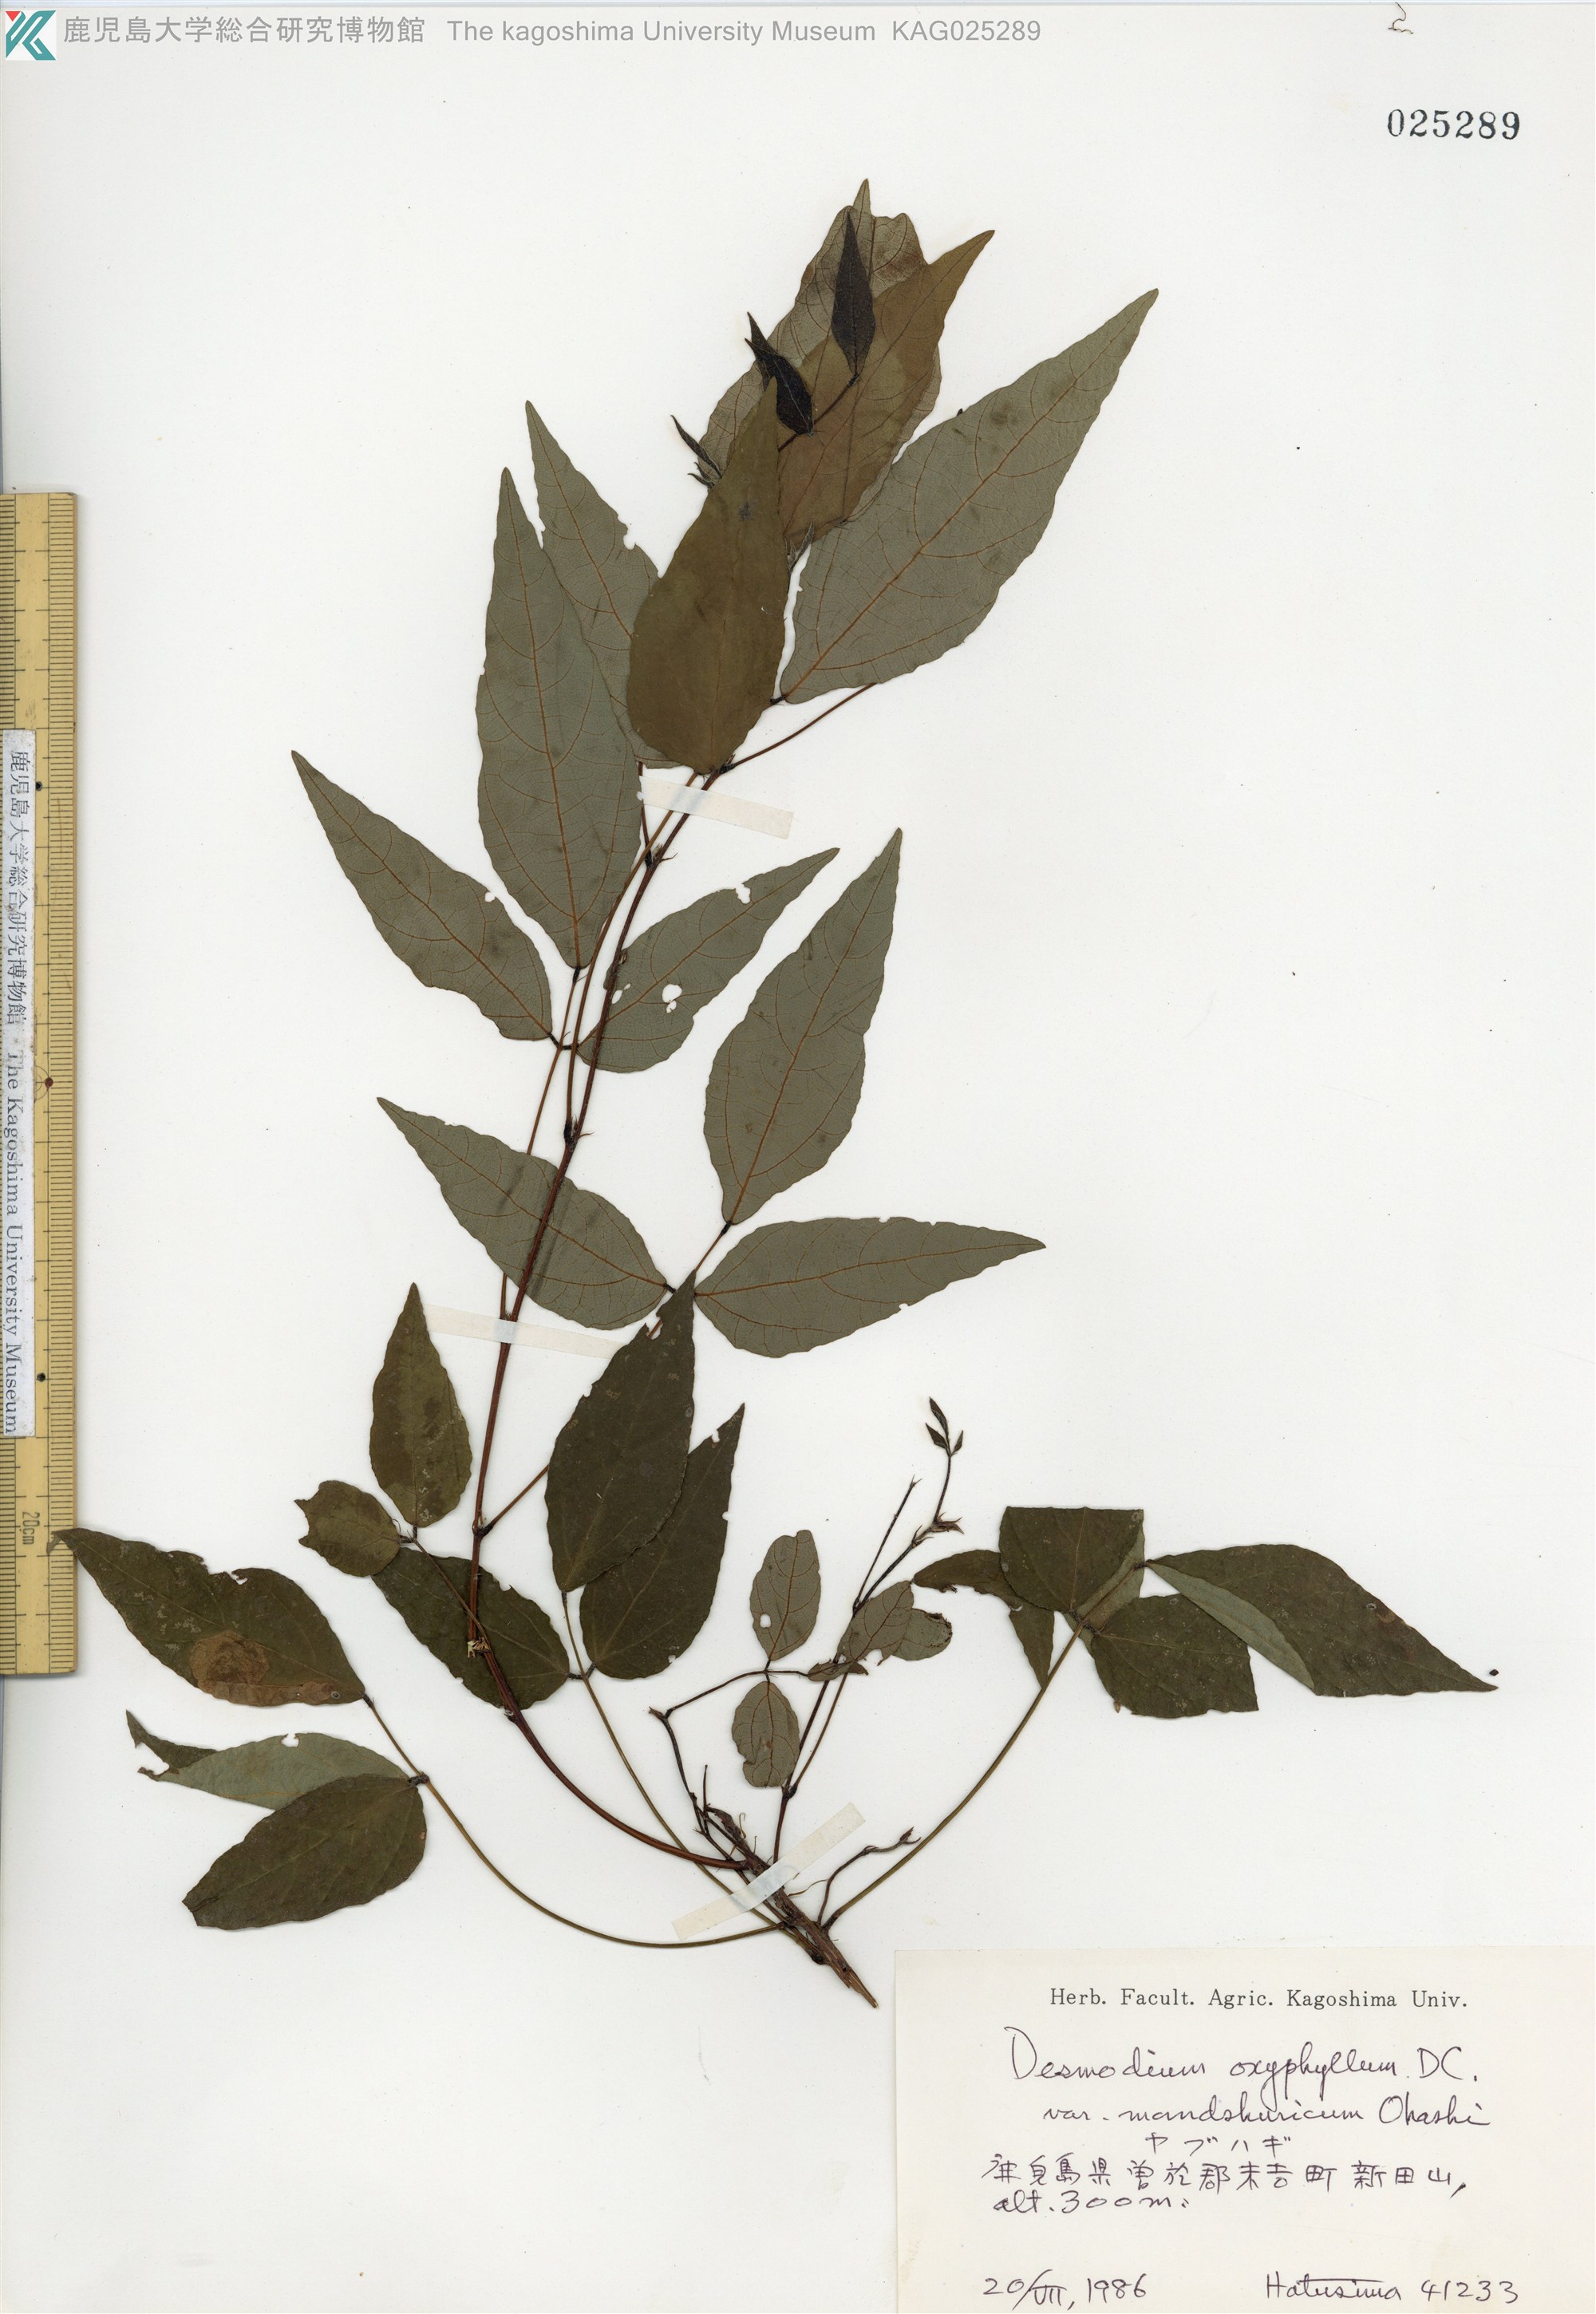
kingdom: Plantae
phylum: Tracheophyta
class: Magnoliopsida
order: Fabales
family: Fabaceae
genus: Hylodesmum
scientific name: Hylodesmum podocarpum
